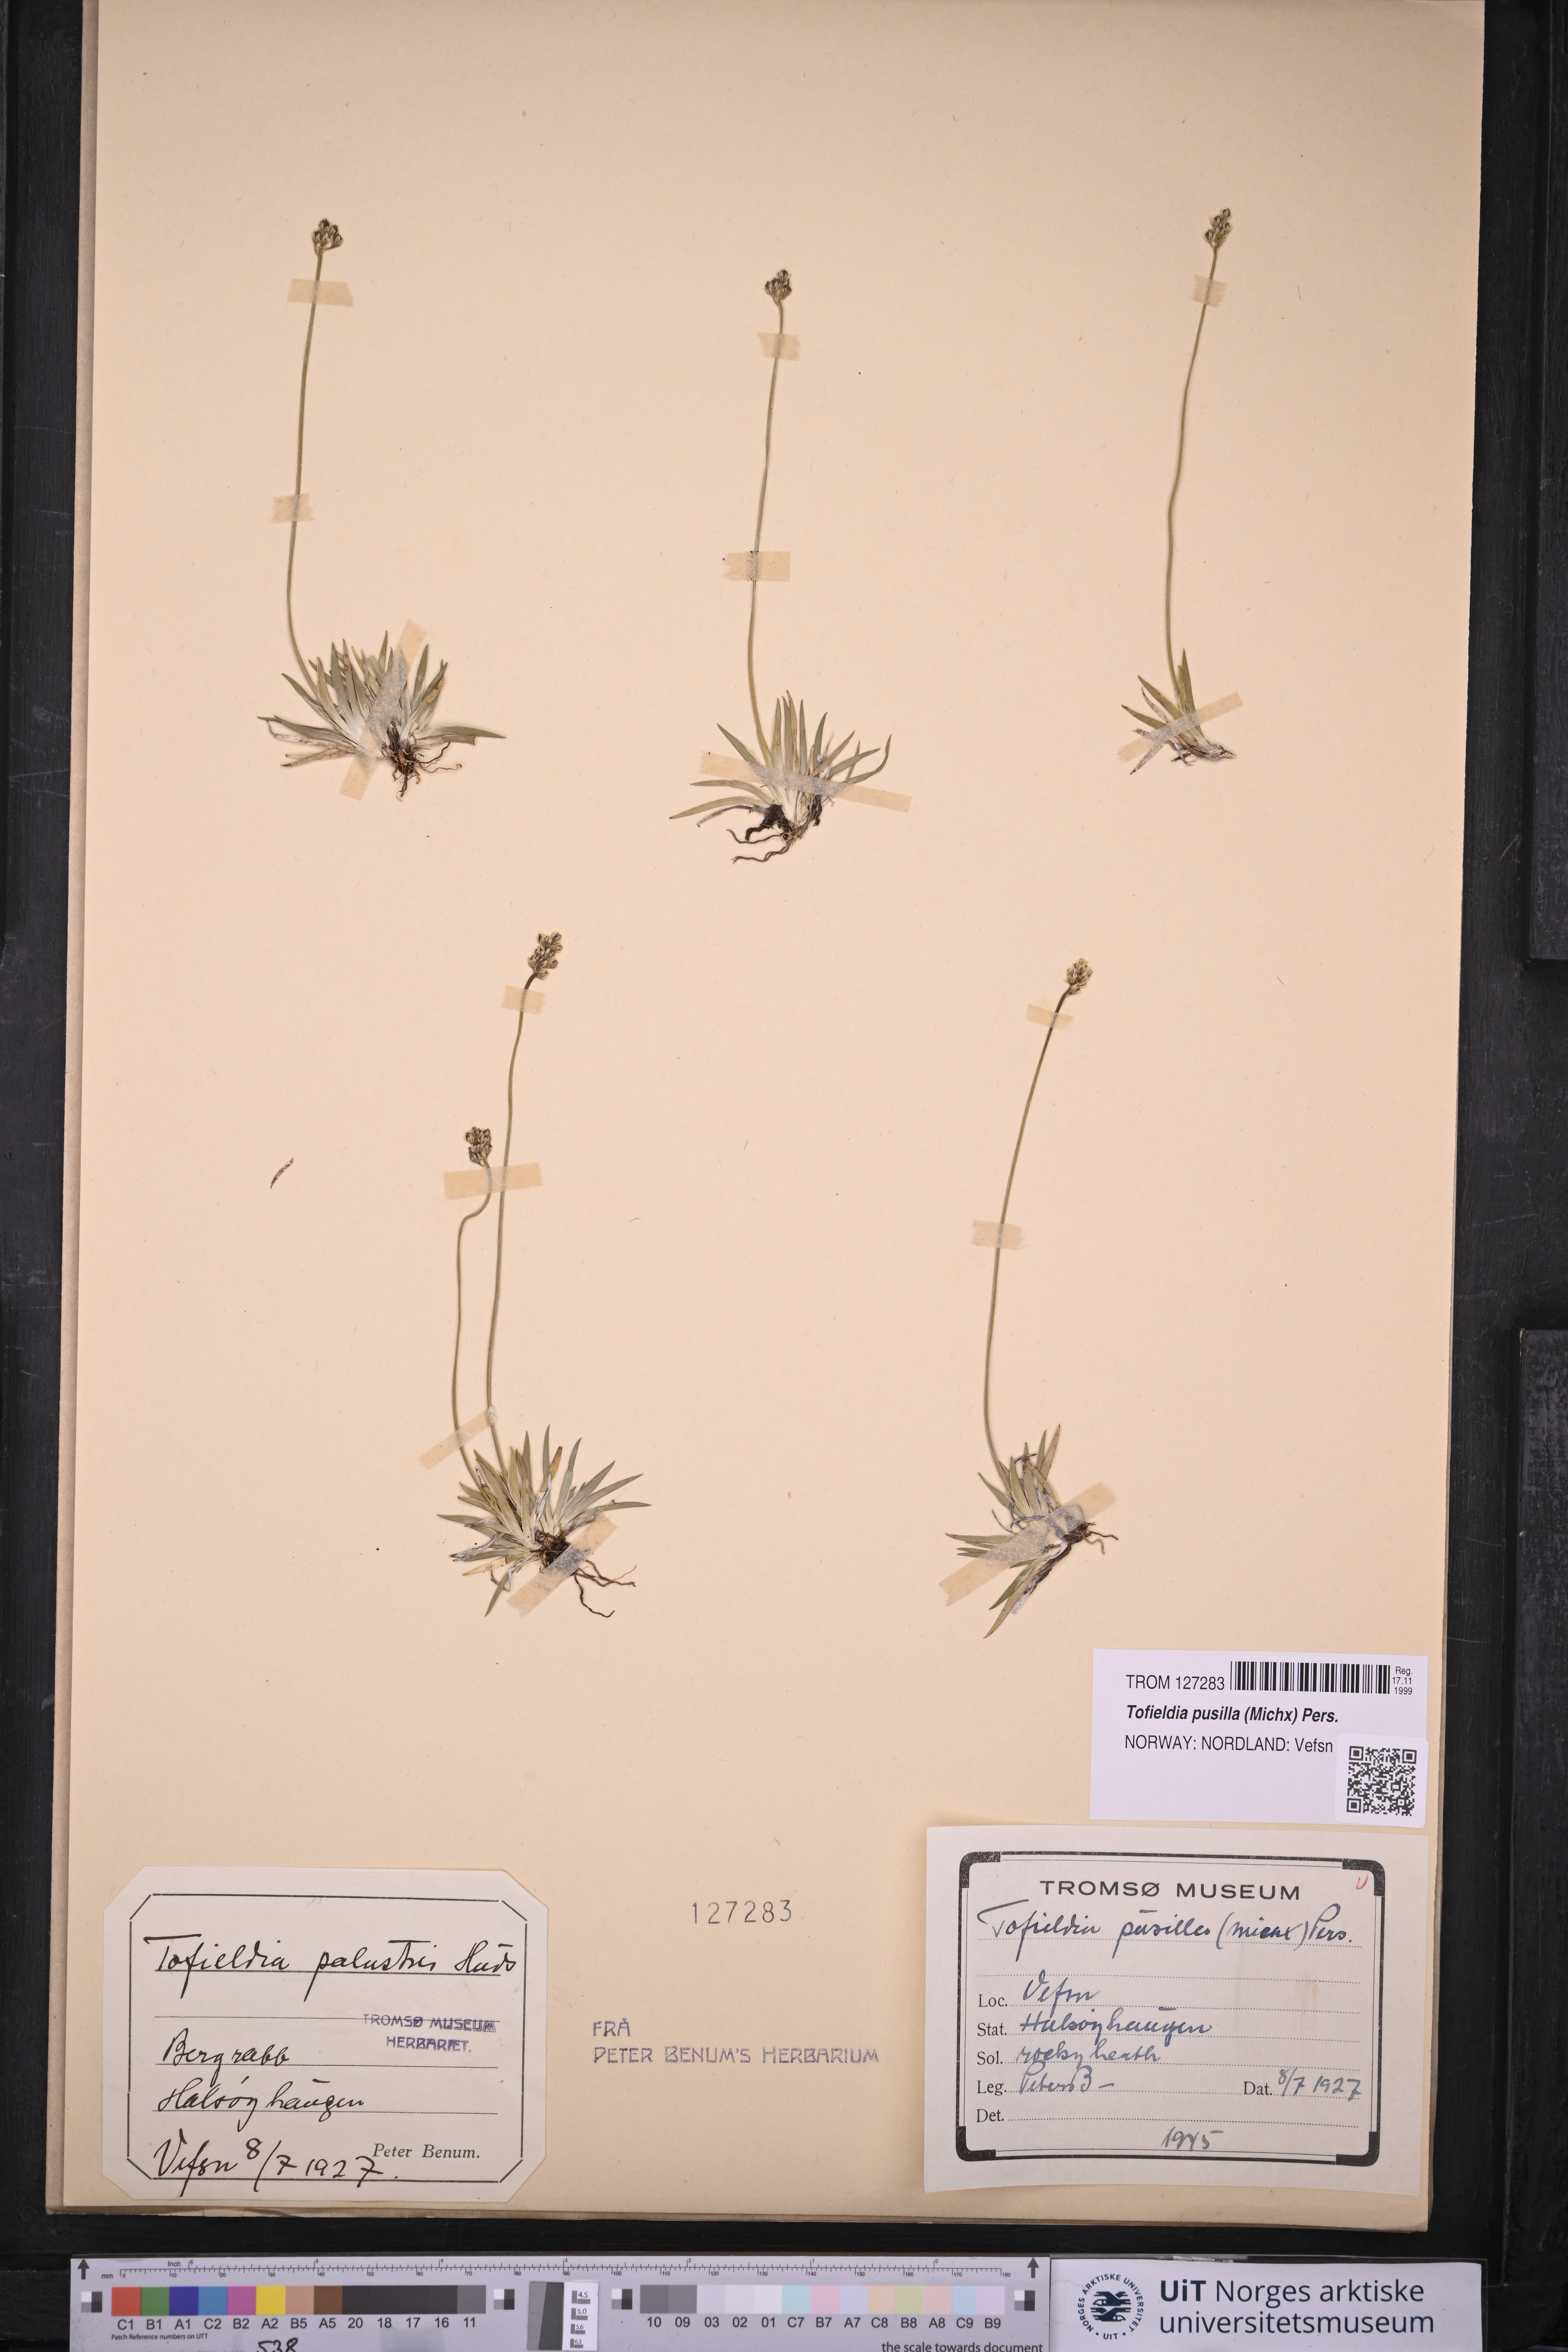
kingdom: Plantae
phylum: Tracheophyta
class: Liliopsida
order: Alismatales
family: Tofieldiaceae
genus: Tofieldia
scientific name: Tofieldia pusilla
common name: Scottish false asphodel
